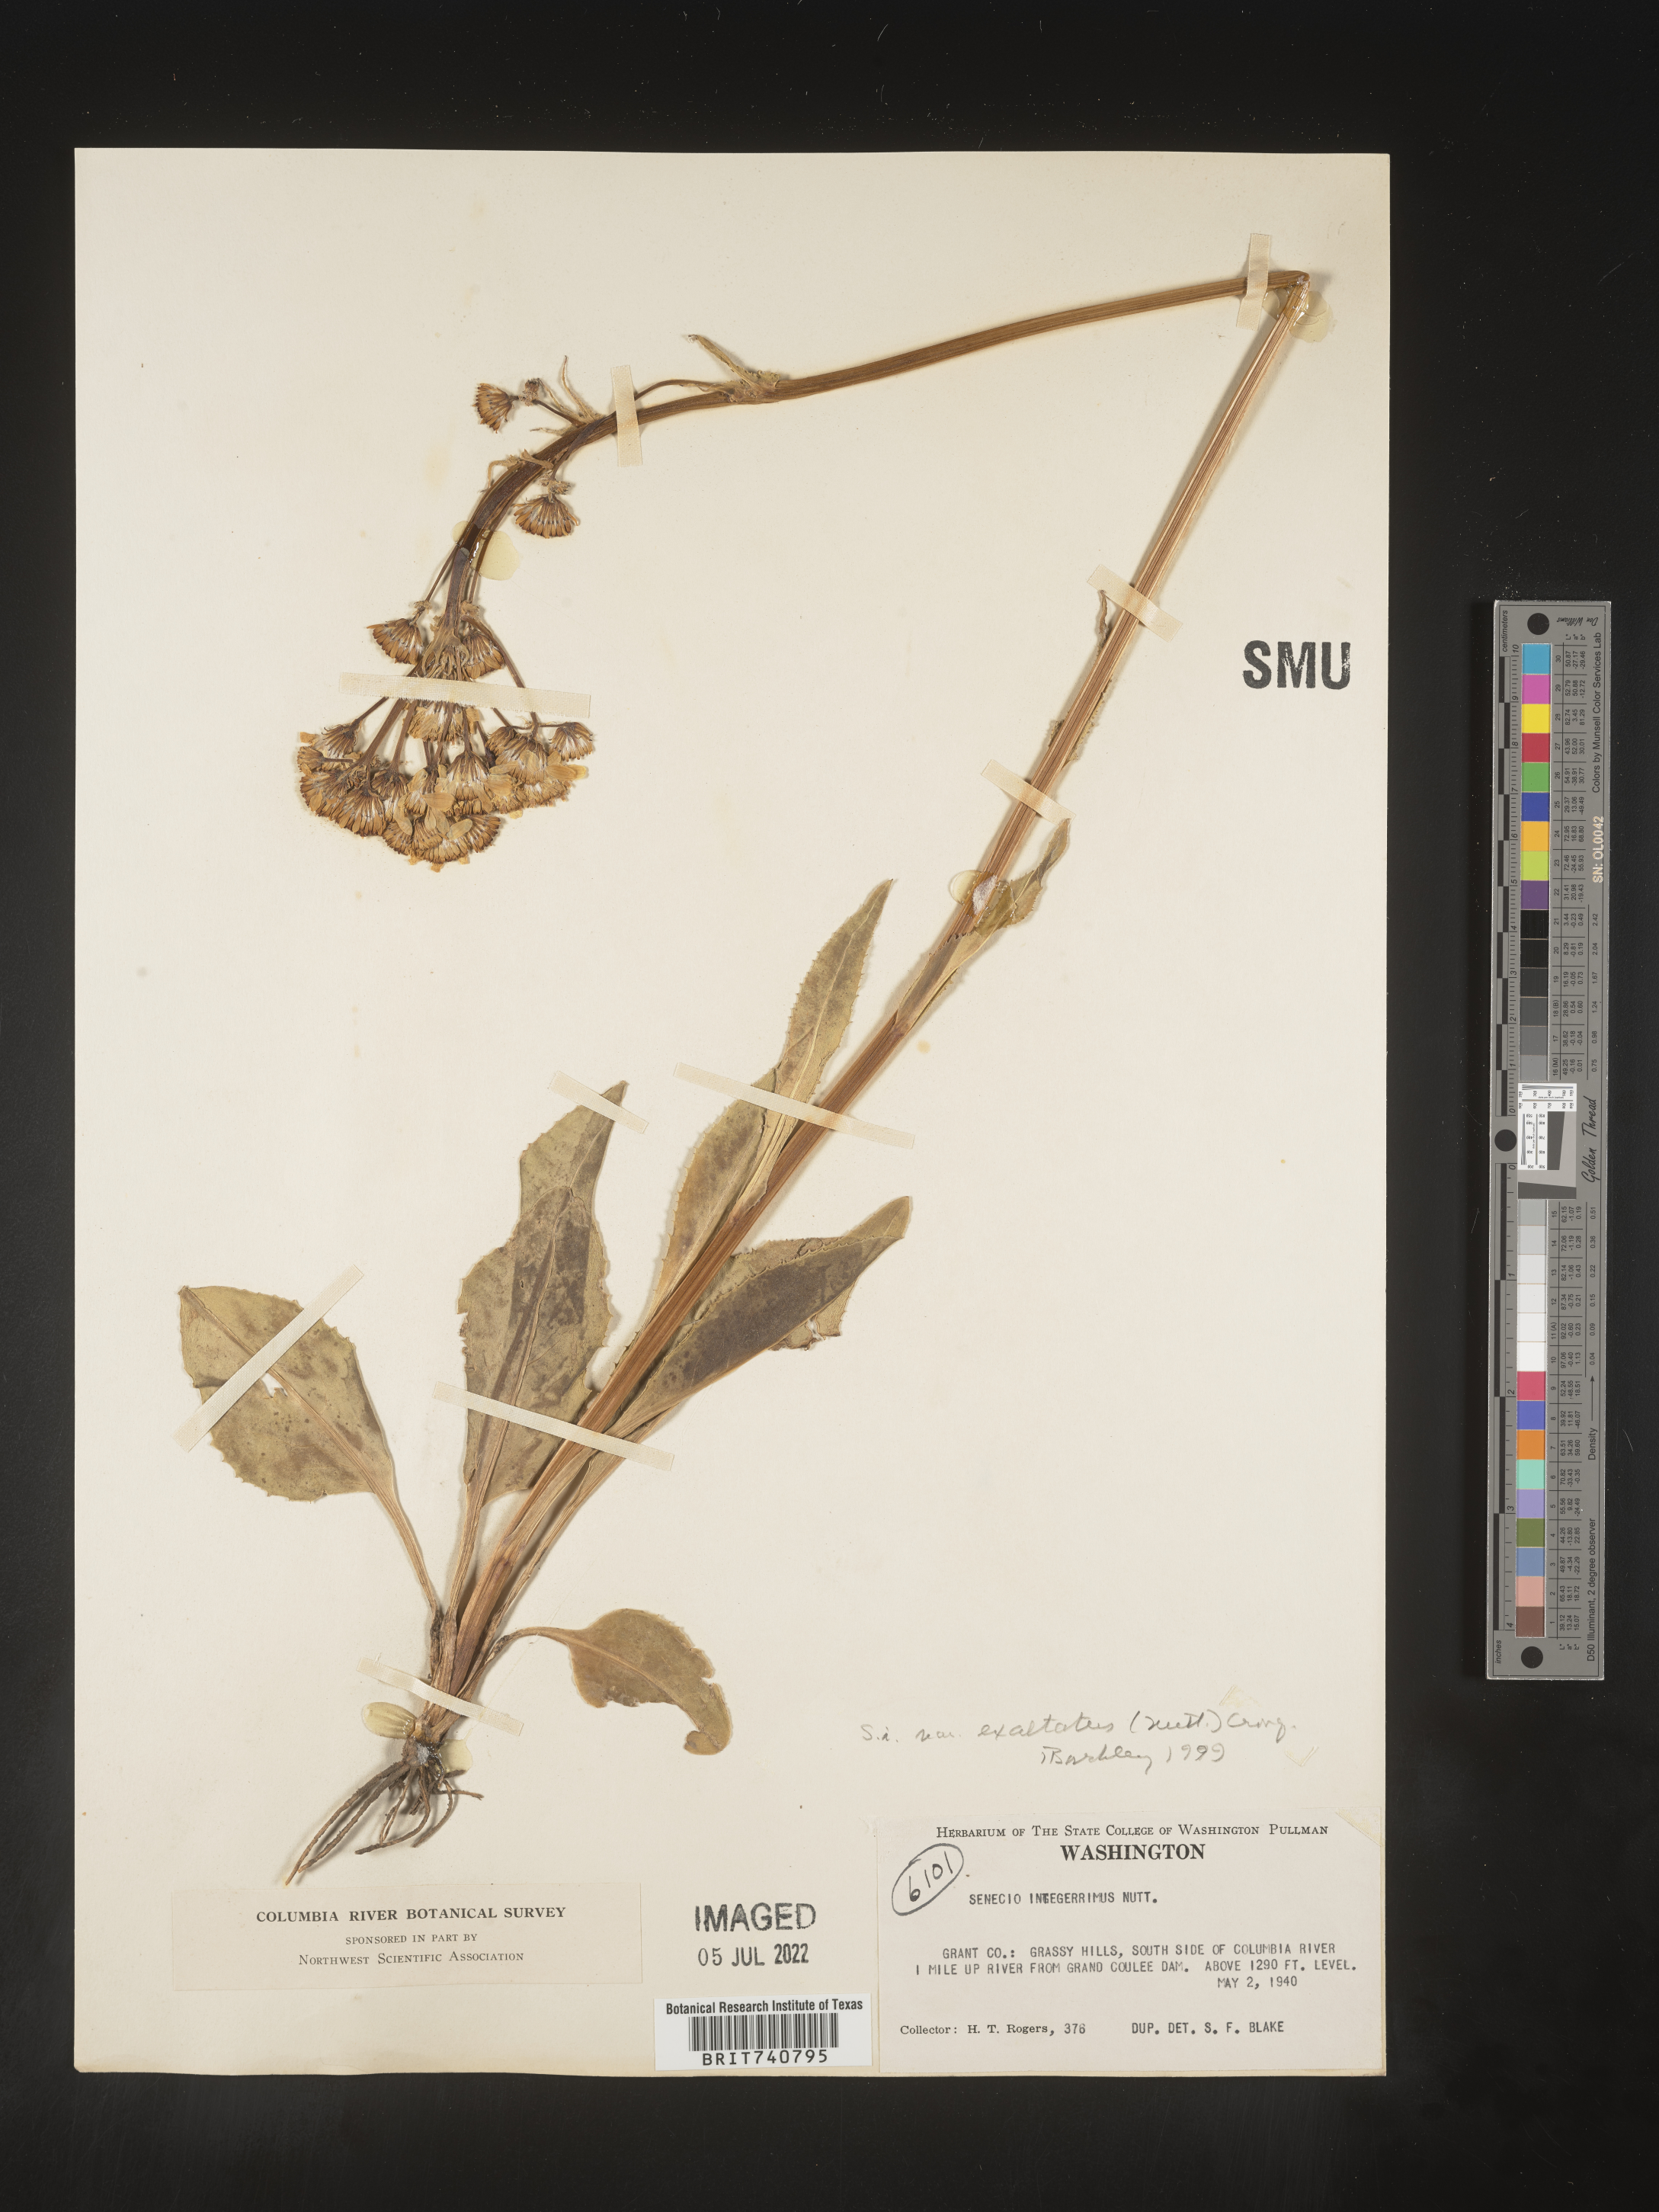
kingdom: Plantae
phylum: Tracheophyta
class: Magnoliopsida
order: Asterales
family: Asteraceae
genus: Senecio
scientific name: Senecio integerrimus
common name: Gaugeplant
